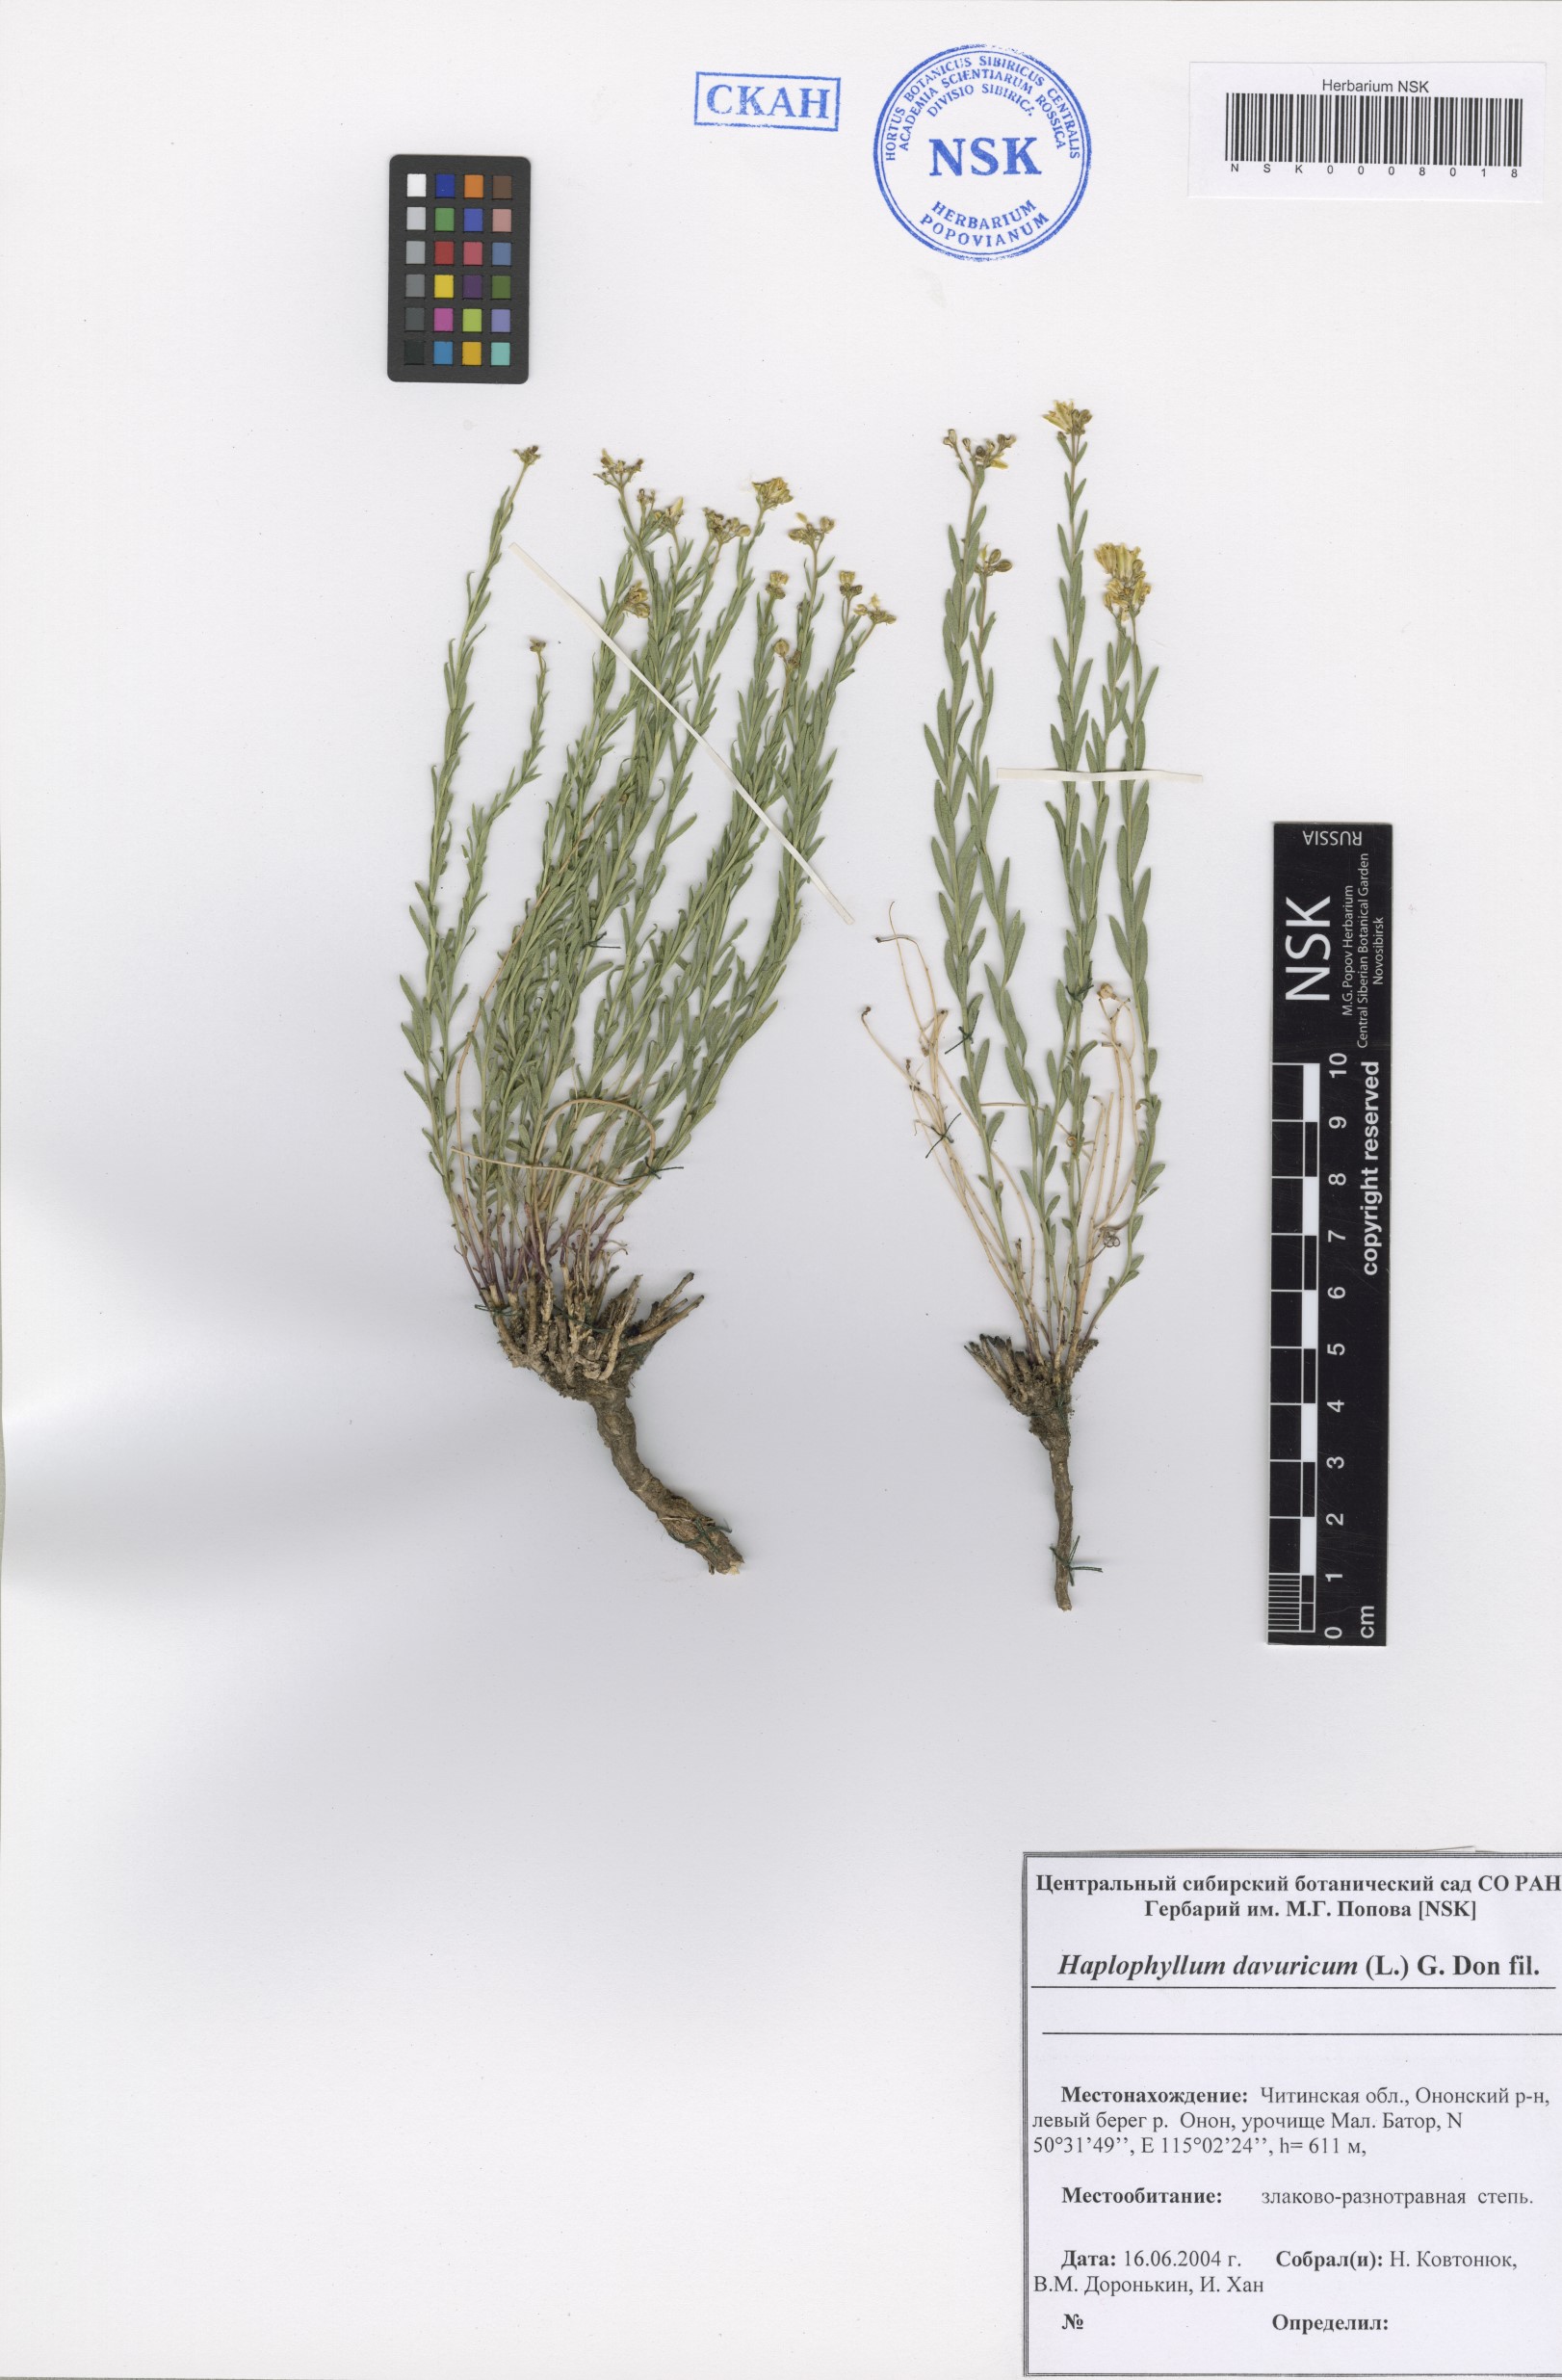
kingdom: Plantae
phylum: Tracheophyta
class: Magnoliopsida
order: Sapindales
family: Rutaceae
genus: Haplophyllum
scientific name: Haplophyllum dauricum
